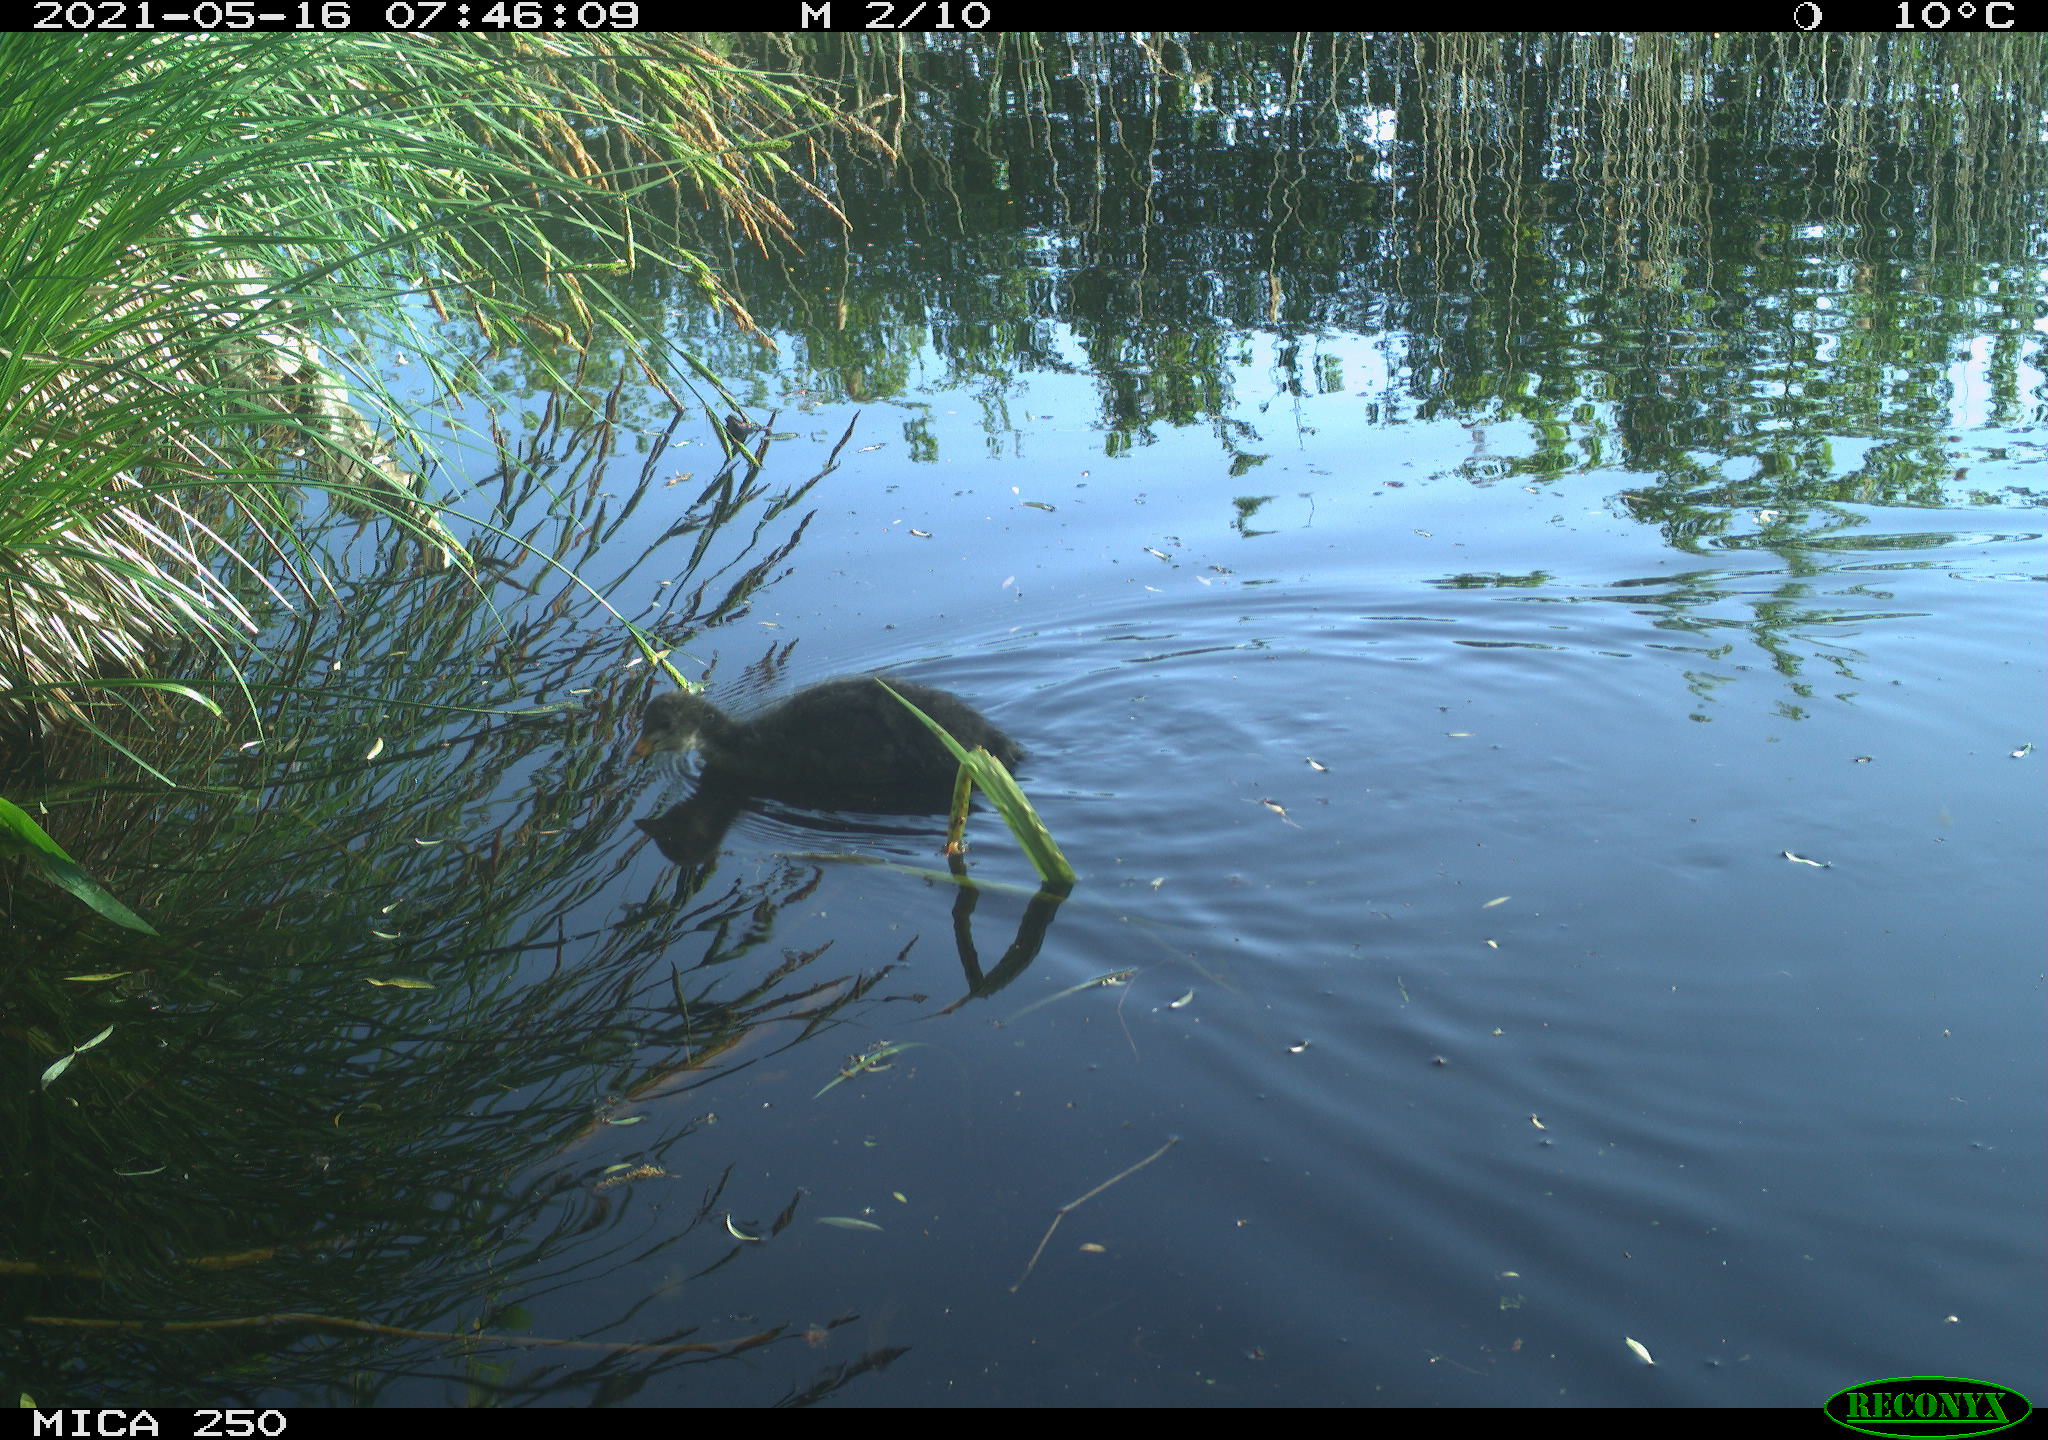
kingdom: Animalia
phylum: Chordata
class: Aves
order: Gruiformes
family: Rallidae
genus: Gallinula
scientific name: Gallinula chloropus
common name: Common moorhen
